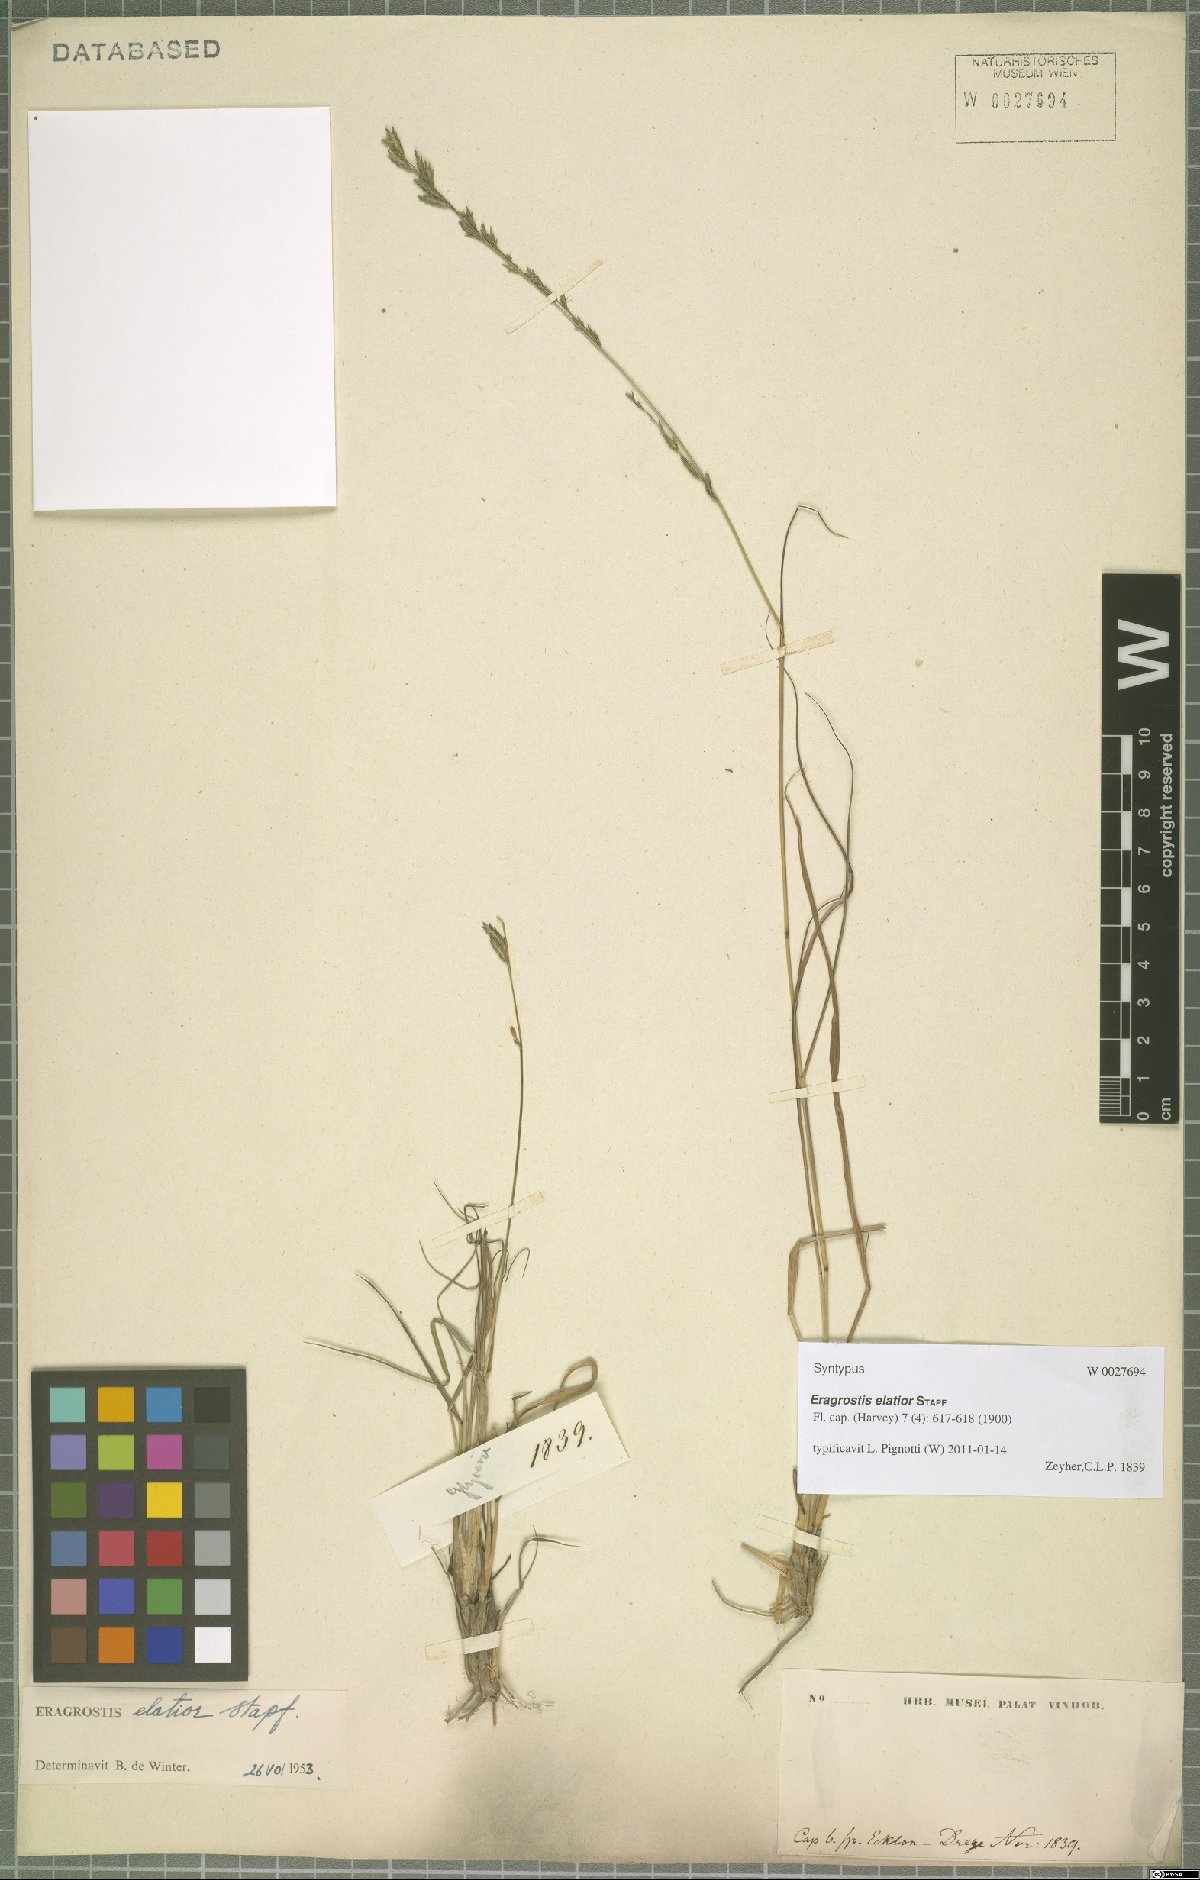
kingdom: Plantae
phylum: Tracheophyta
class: Liliopsida
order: Poales
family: Poaceae
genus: Eragrostis
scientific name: Eragrostis elatior
